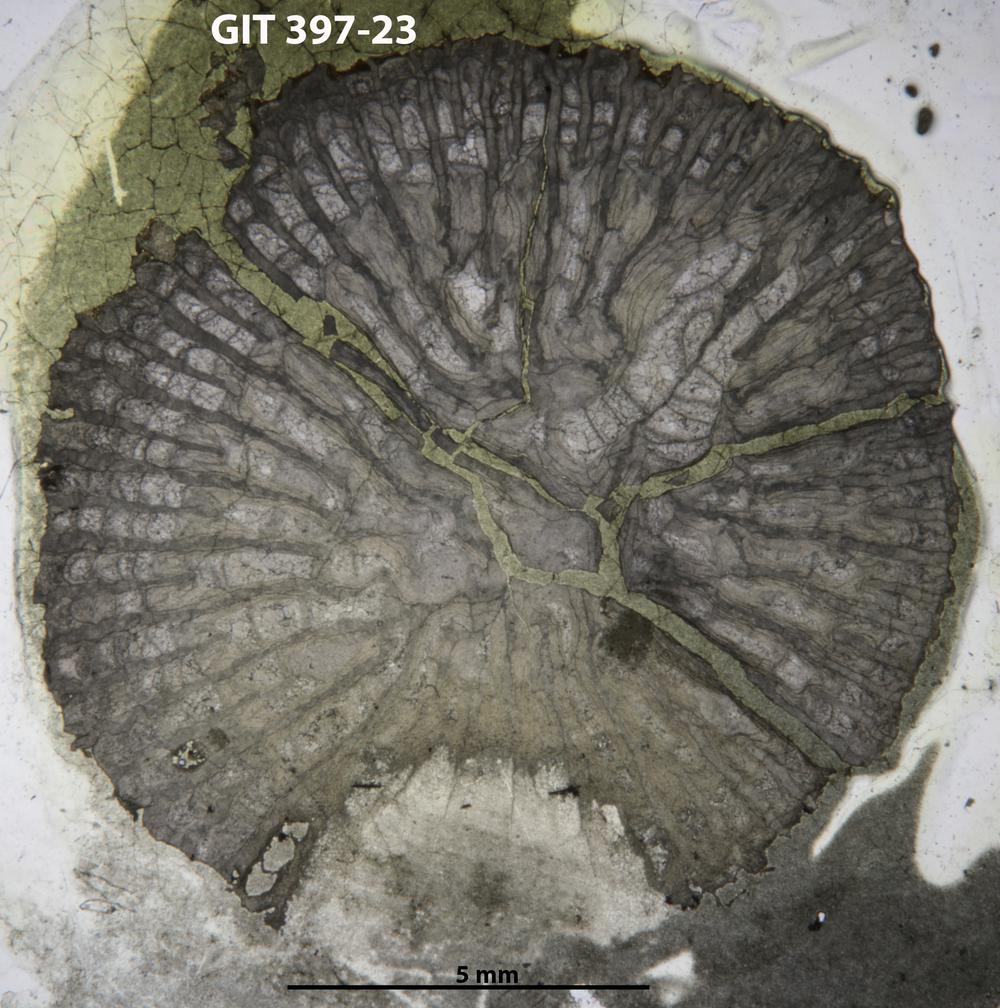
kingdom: Animalia
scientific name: Animalia
